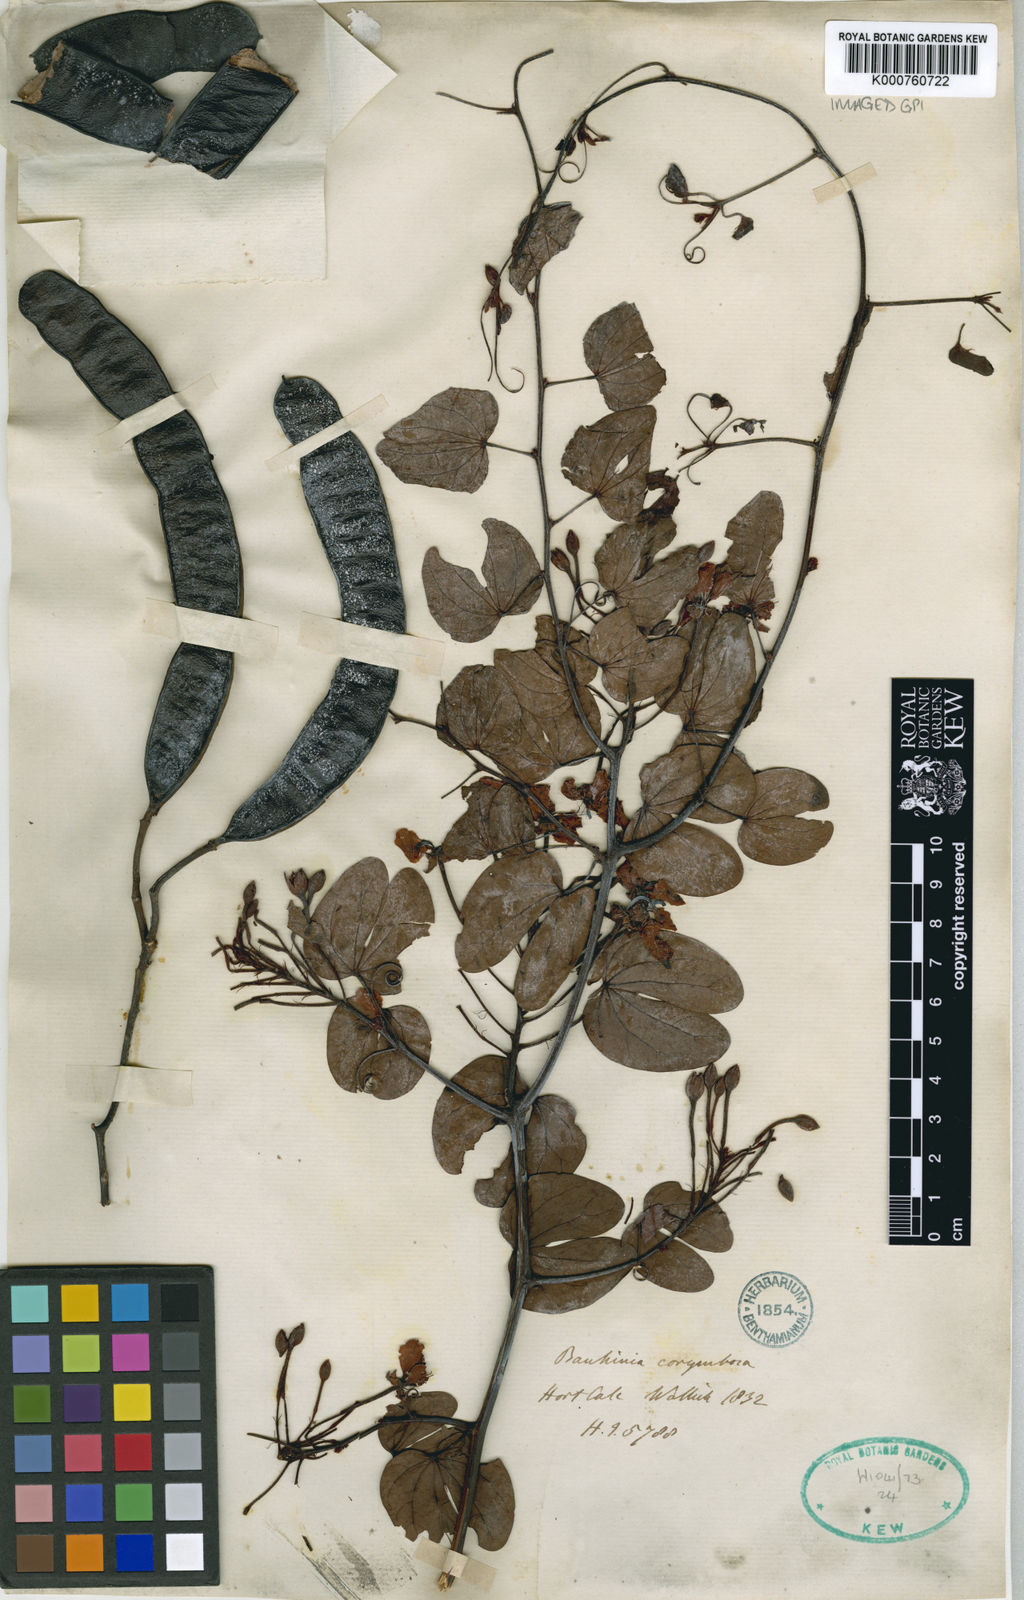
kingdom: Plantae
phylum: Tracheophyta
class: Magnoliopsida
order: Fabales
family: Fabaceae
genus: Cheniella
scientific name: Cheniella corymbosa
